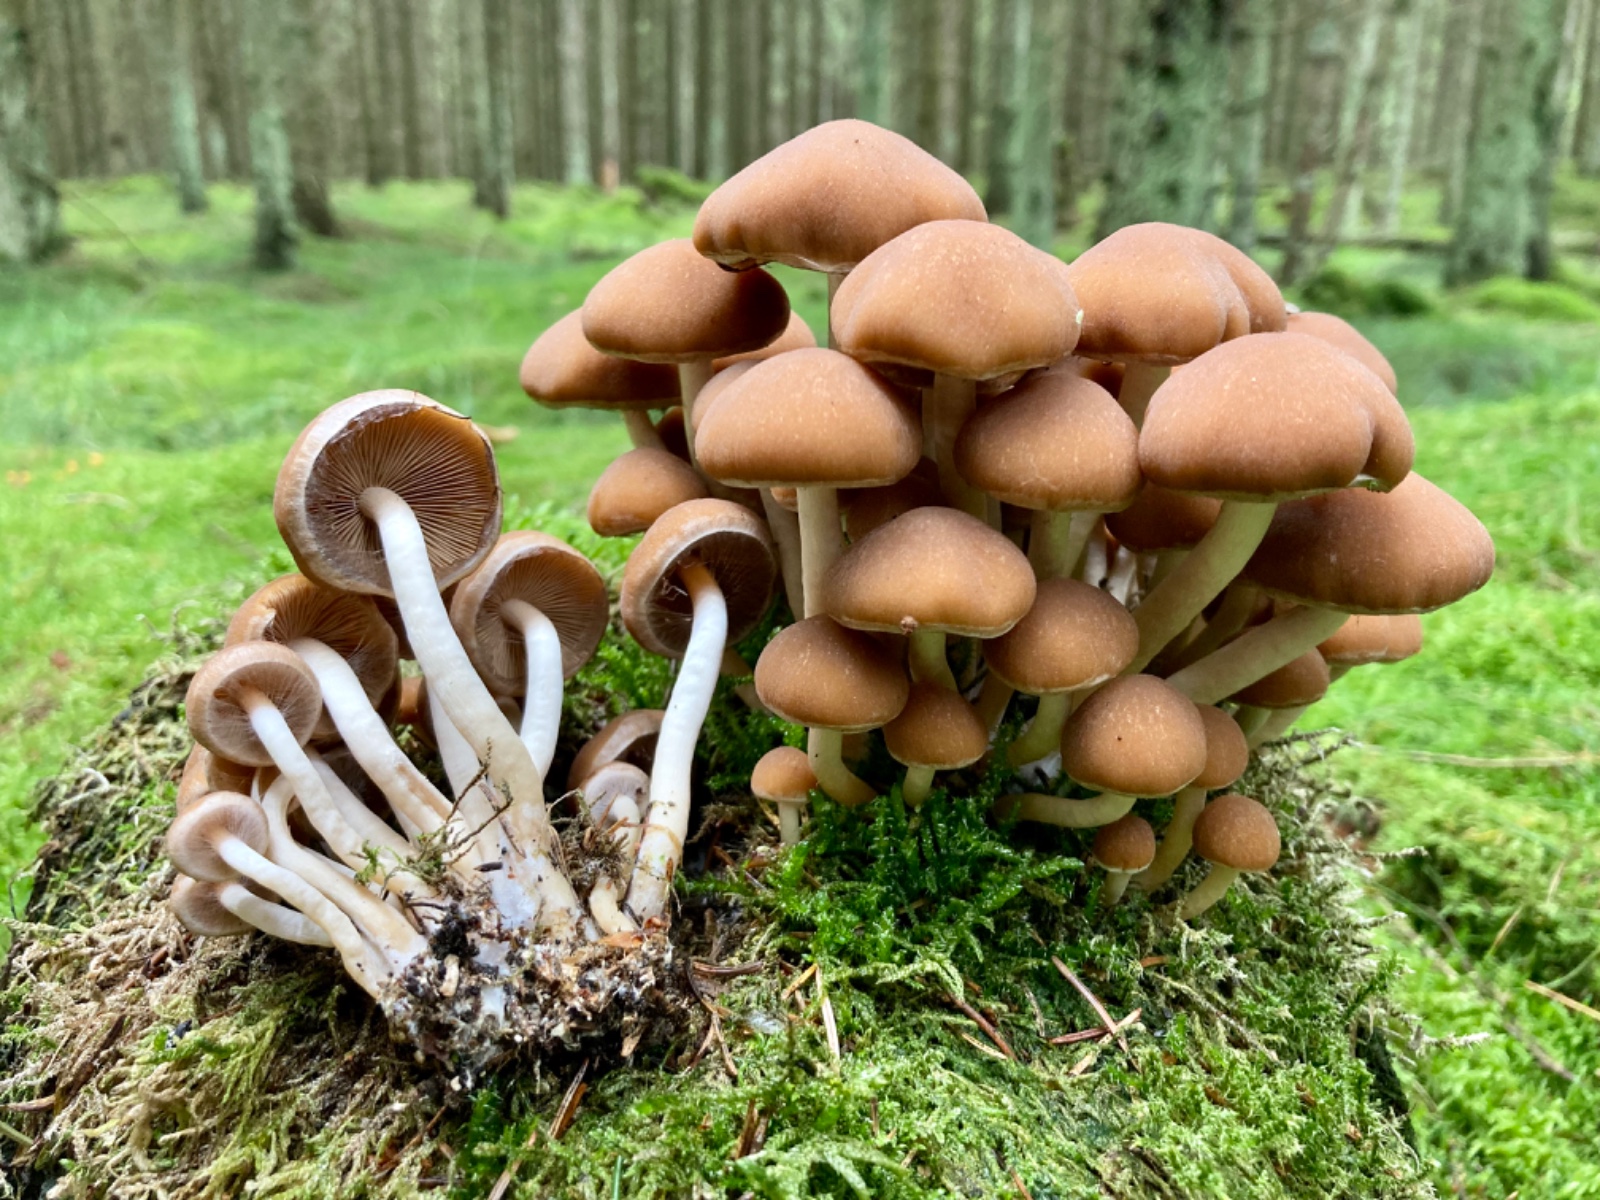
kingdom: Fungi
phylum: Basidiomycota
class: Agaricomycetes
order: Agaricales
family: Psathyrellaceae
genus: Psathyrella
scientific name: Psathyrella piluliformis
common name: lysstokket mørkhat
